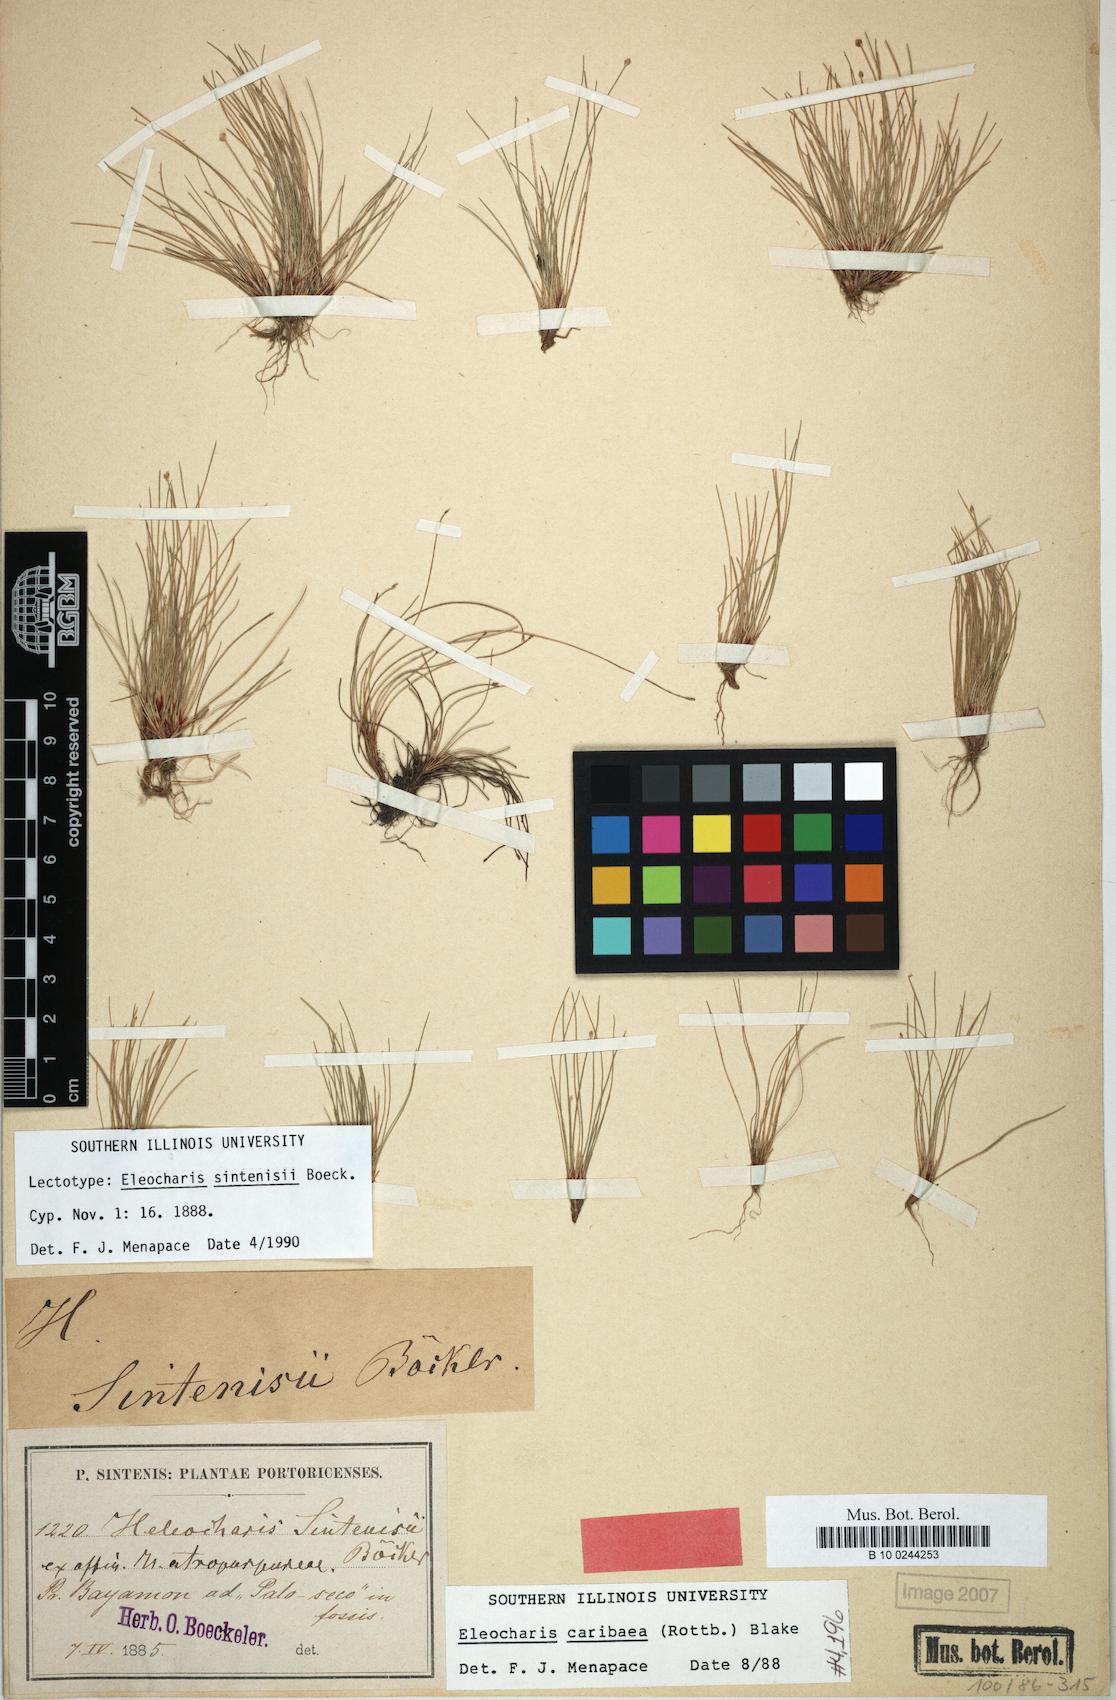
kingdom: Plantae
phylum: Tracheophyta
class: Liliopsida
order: Poales
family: Cyperaceae
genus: Eleocharis
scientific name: Eleocharis geniculata
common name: Canada spikesedge
